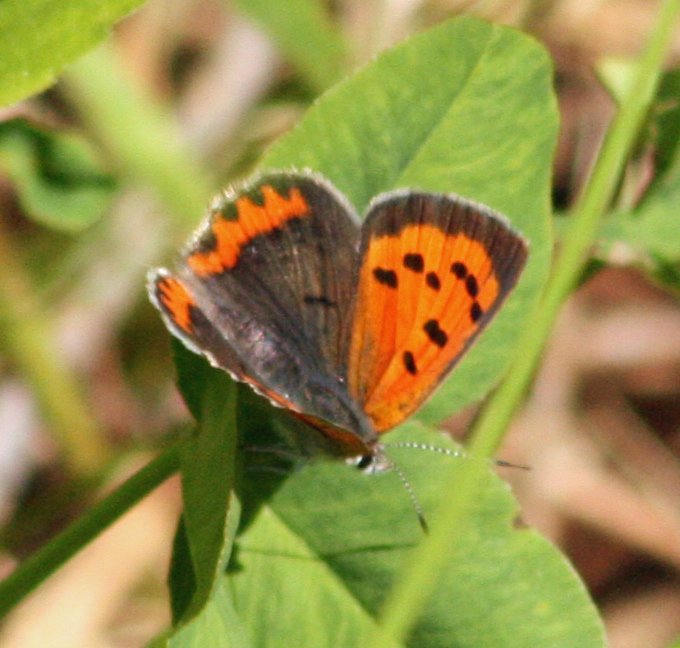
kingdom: Animalia
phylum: Arthropoda
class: Insecta
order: Lepidoptera
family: Lycaenidae
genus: Lycaena
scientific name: Lycaena phlaeas
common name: American Copper
